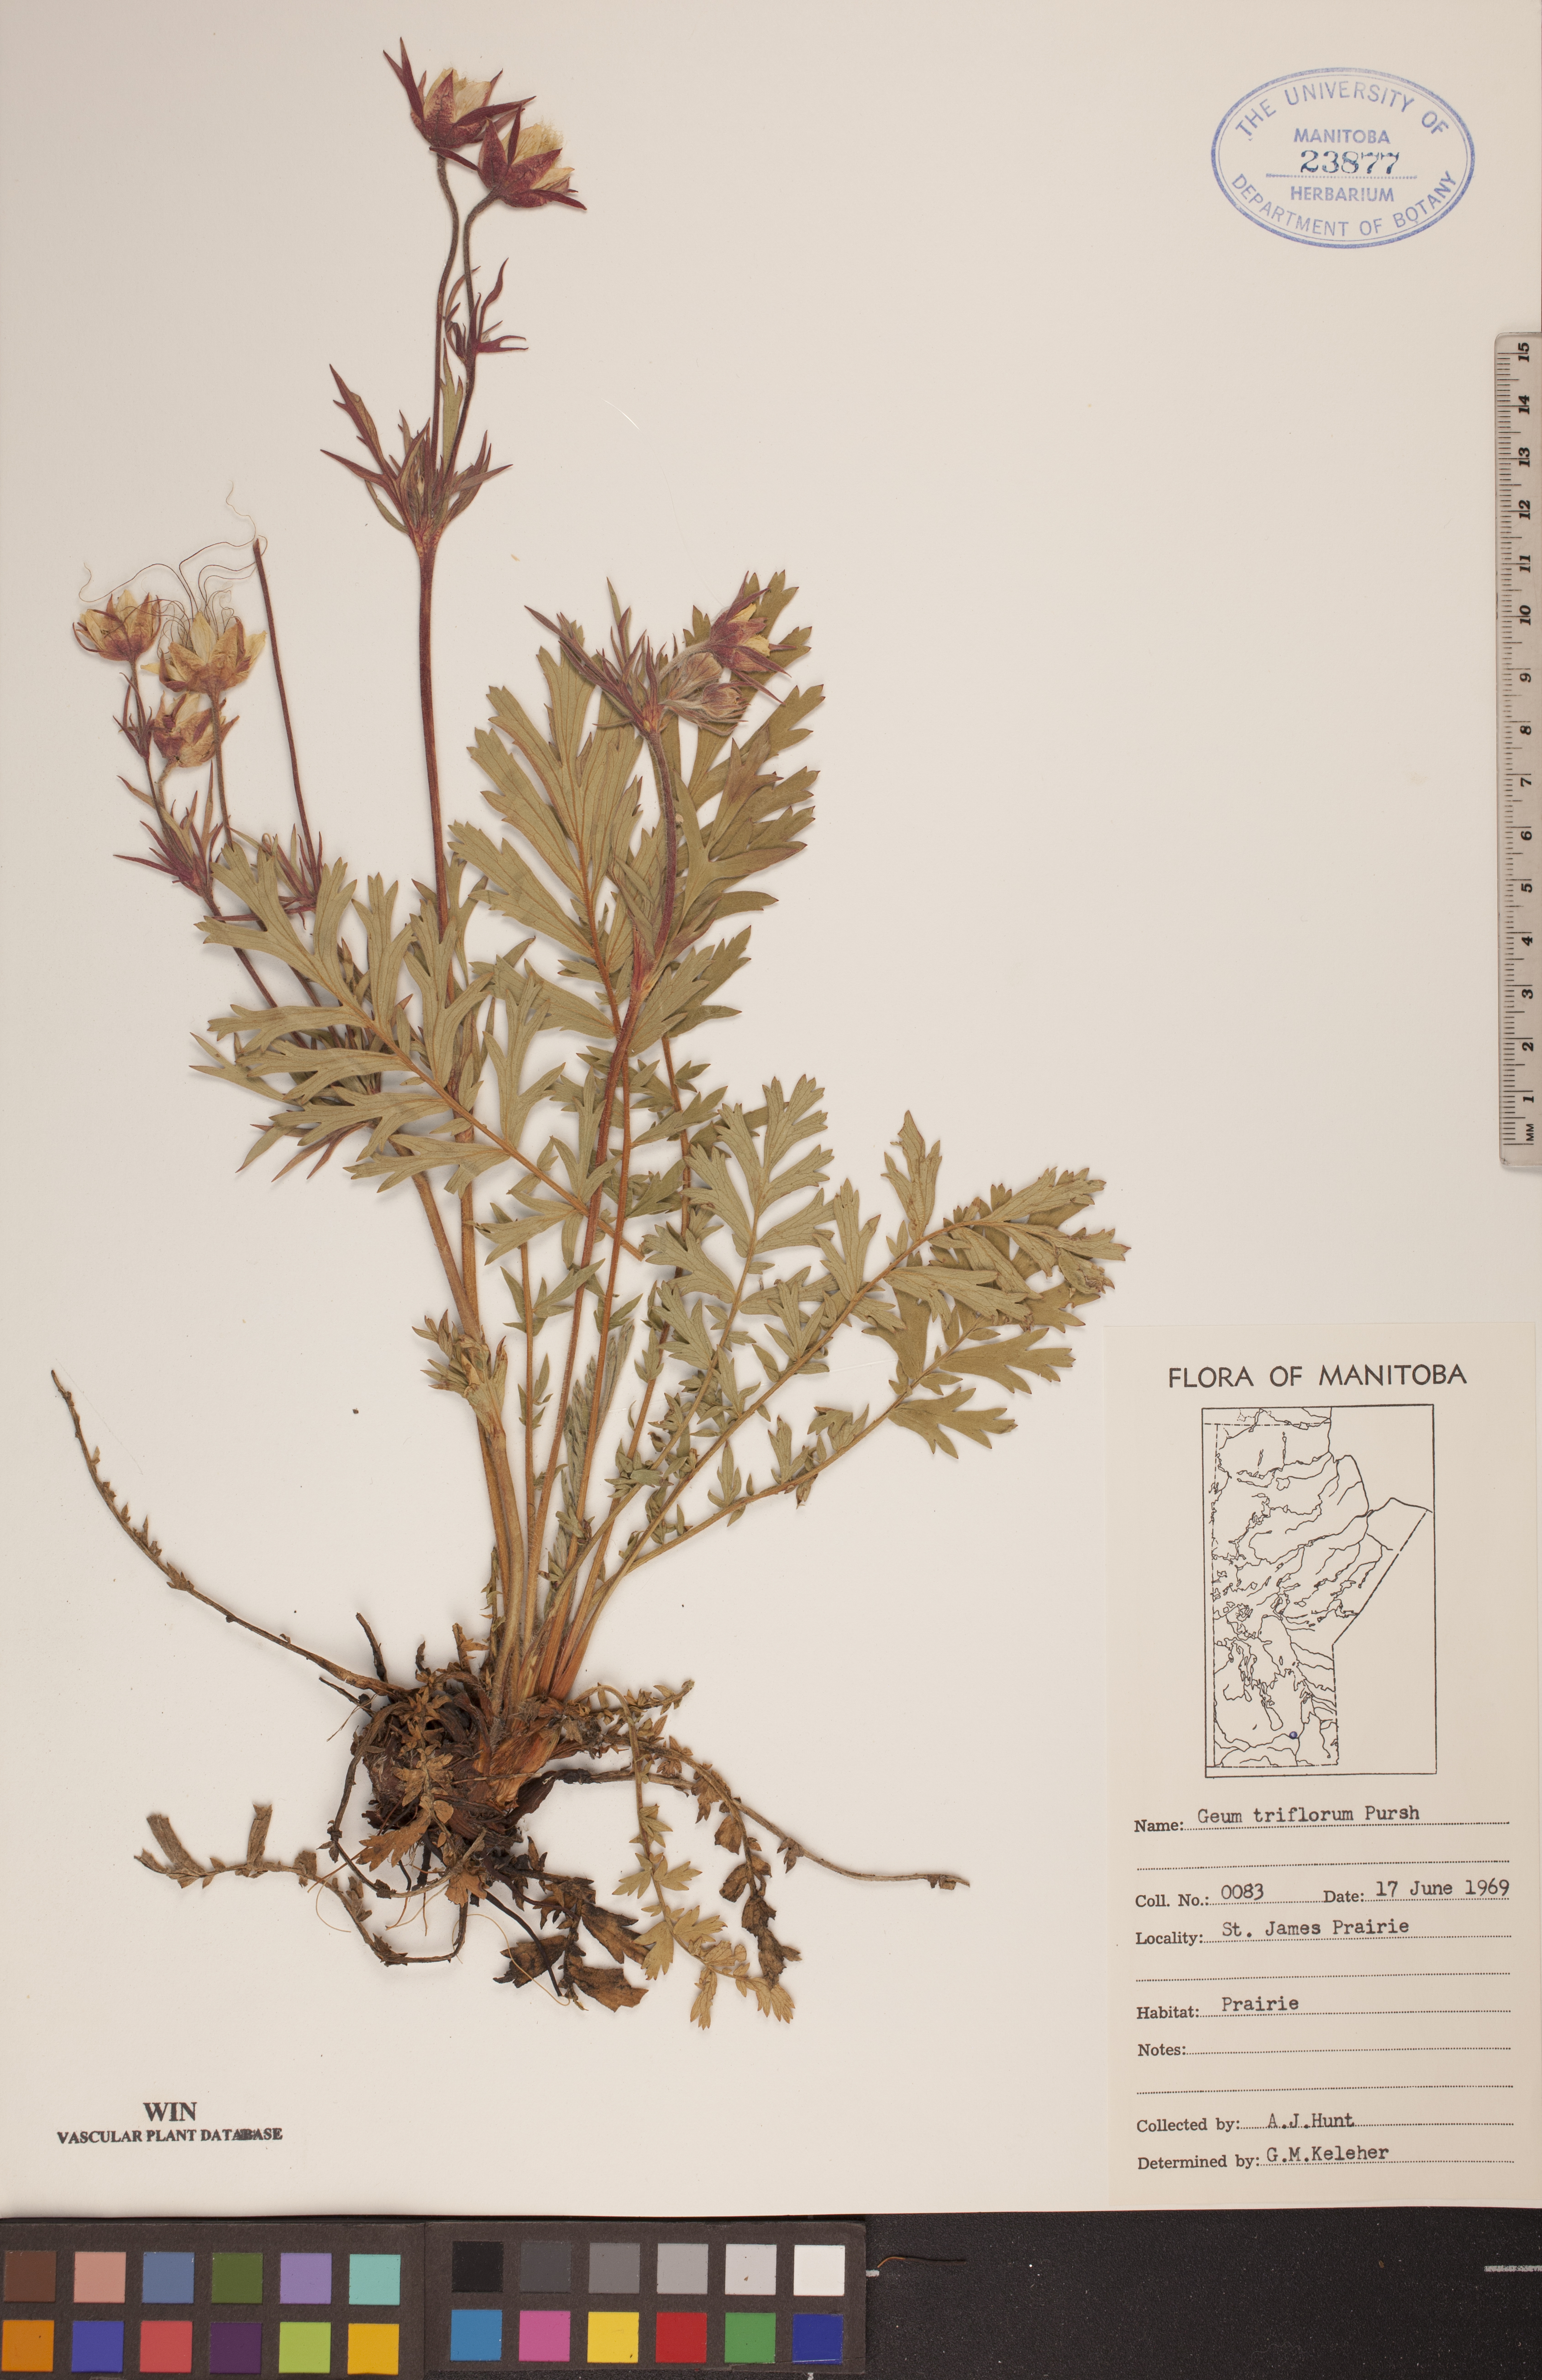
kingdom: Plantae
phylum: Tracheophyta
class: Magnoliopsida
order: Rosales
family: Rosaceae
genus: Geum
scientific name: Geum triflorum
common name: Old man's whiskers
